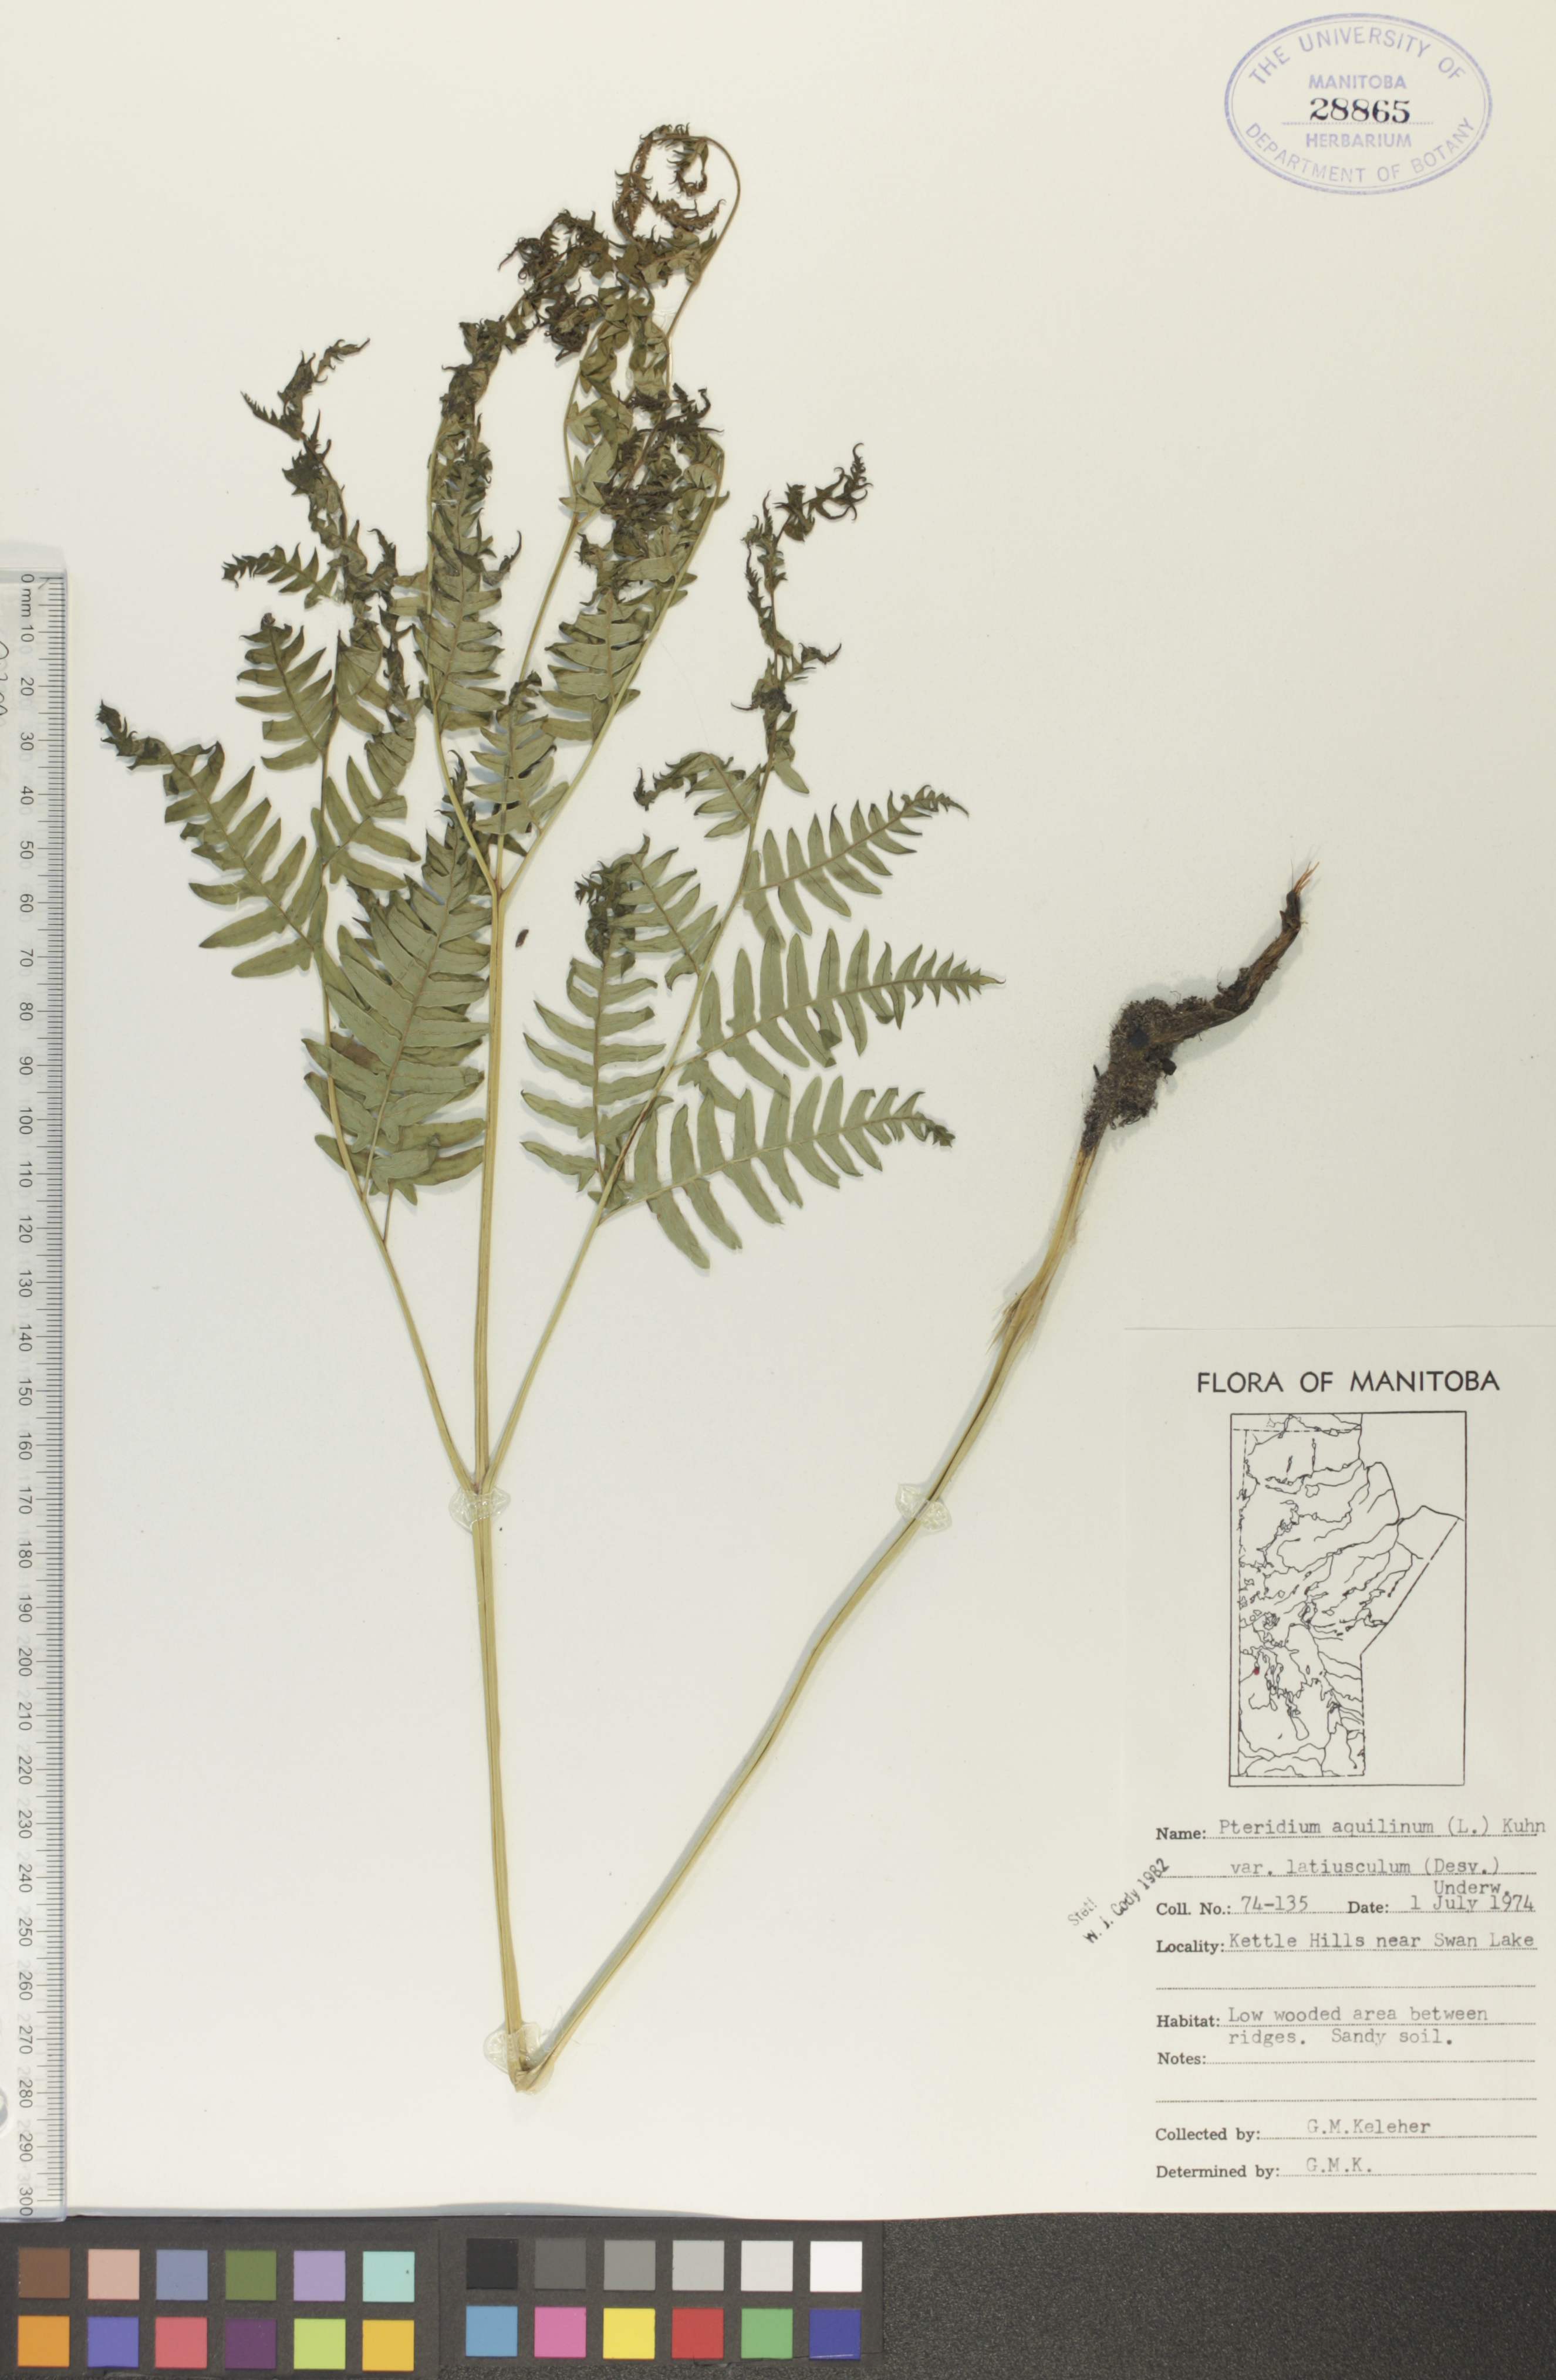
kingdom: Plantae
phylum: Tracheophyta
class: Polypodiopsida
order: Polypodiales
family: Dennstaedtiaceae
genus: Pteridium
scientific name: Pteridium aquilinum
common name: Bracken
